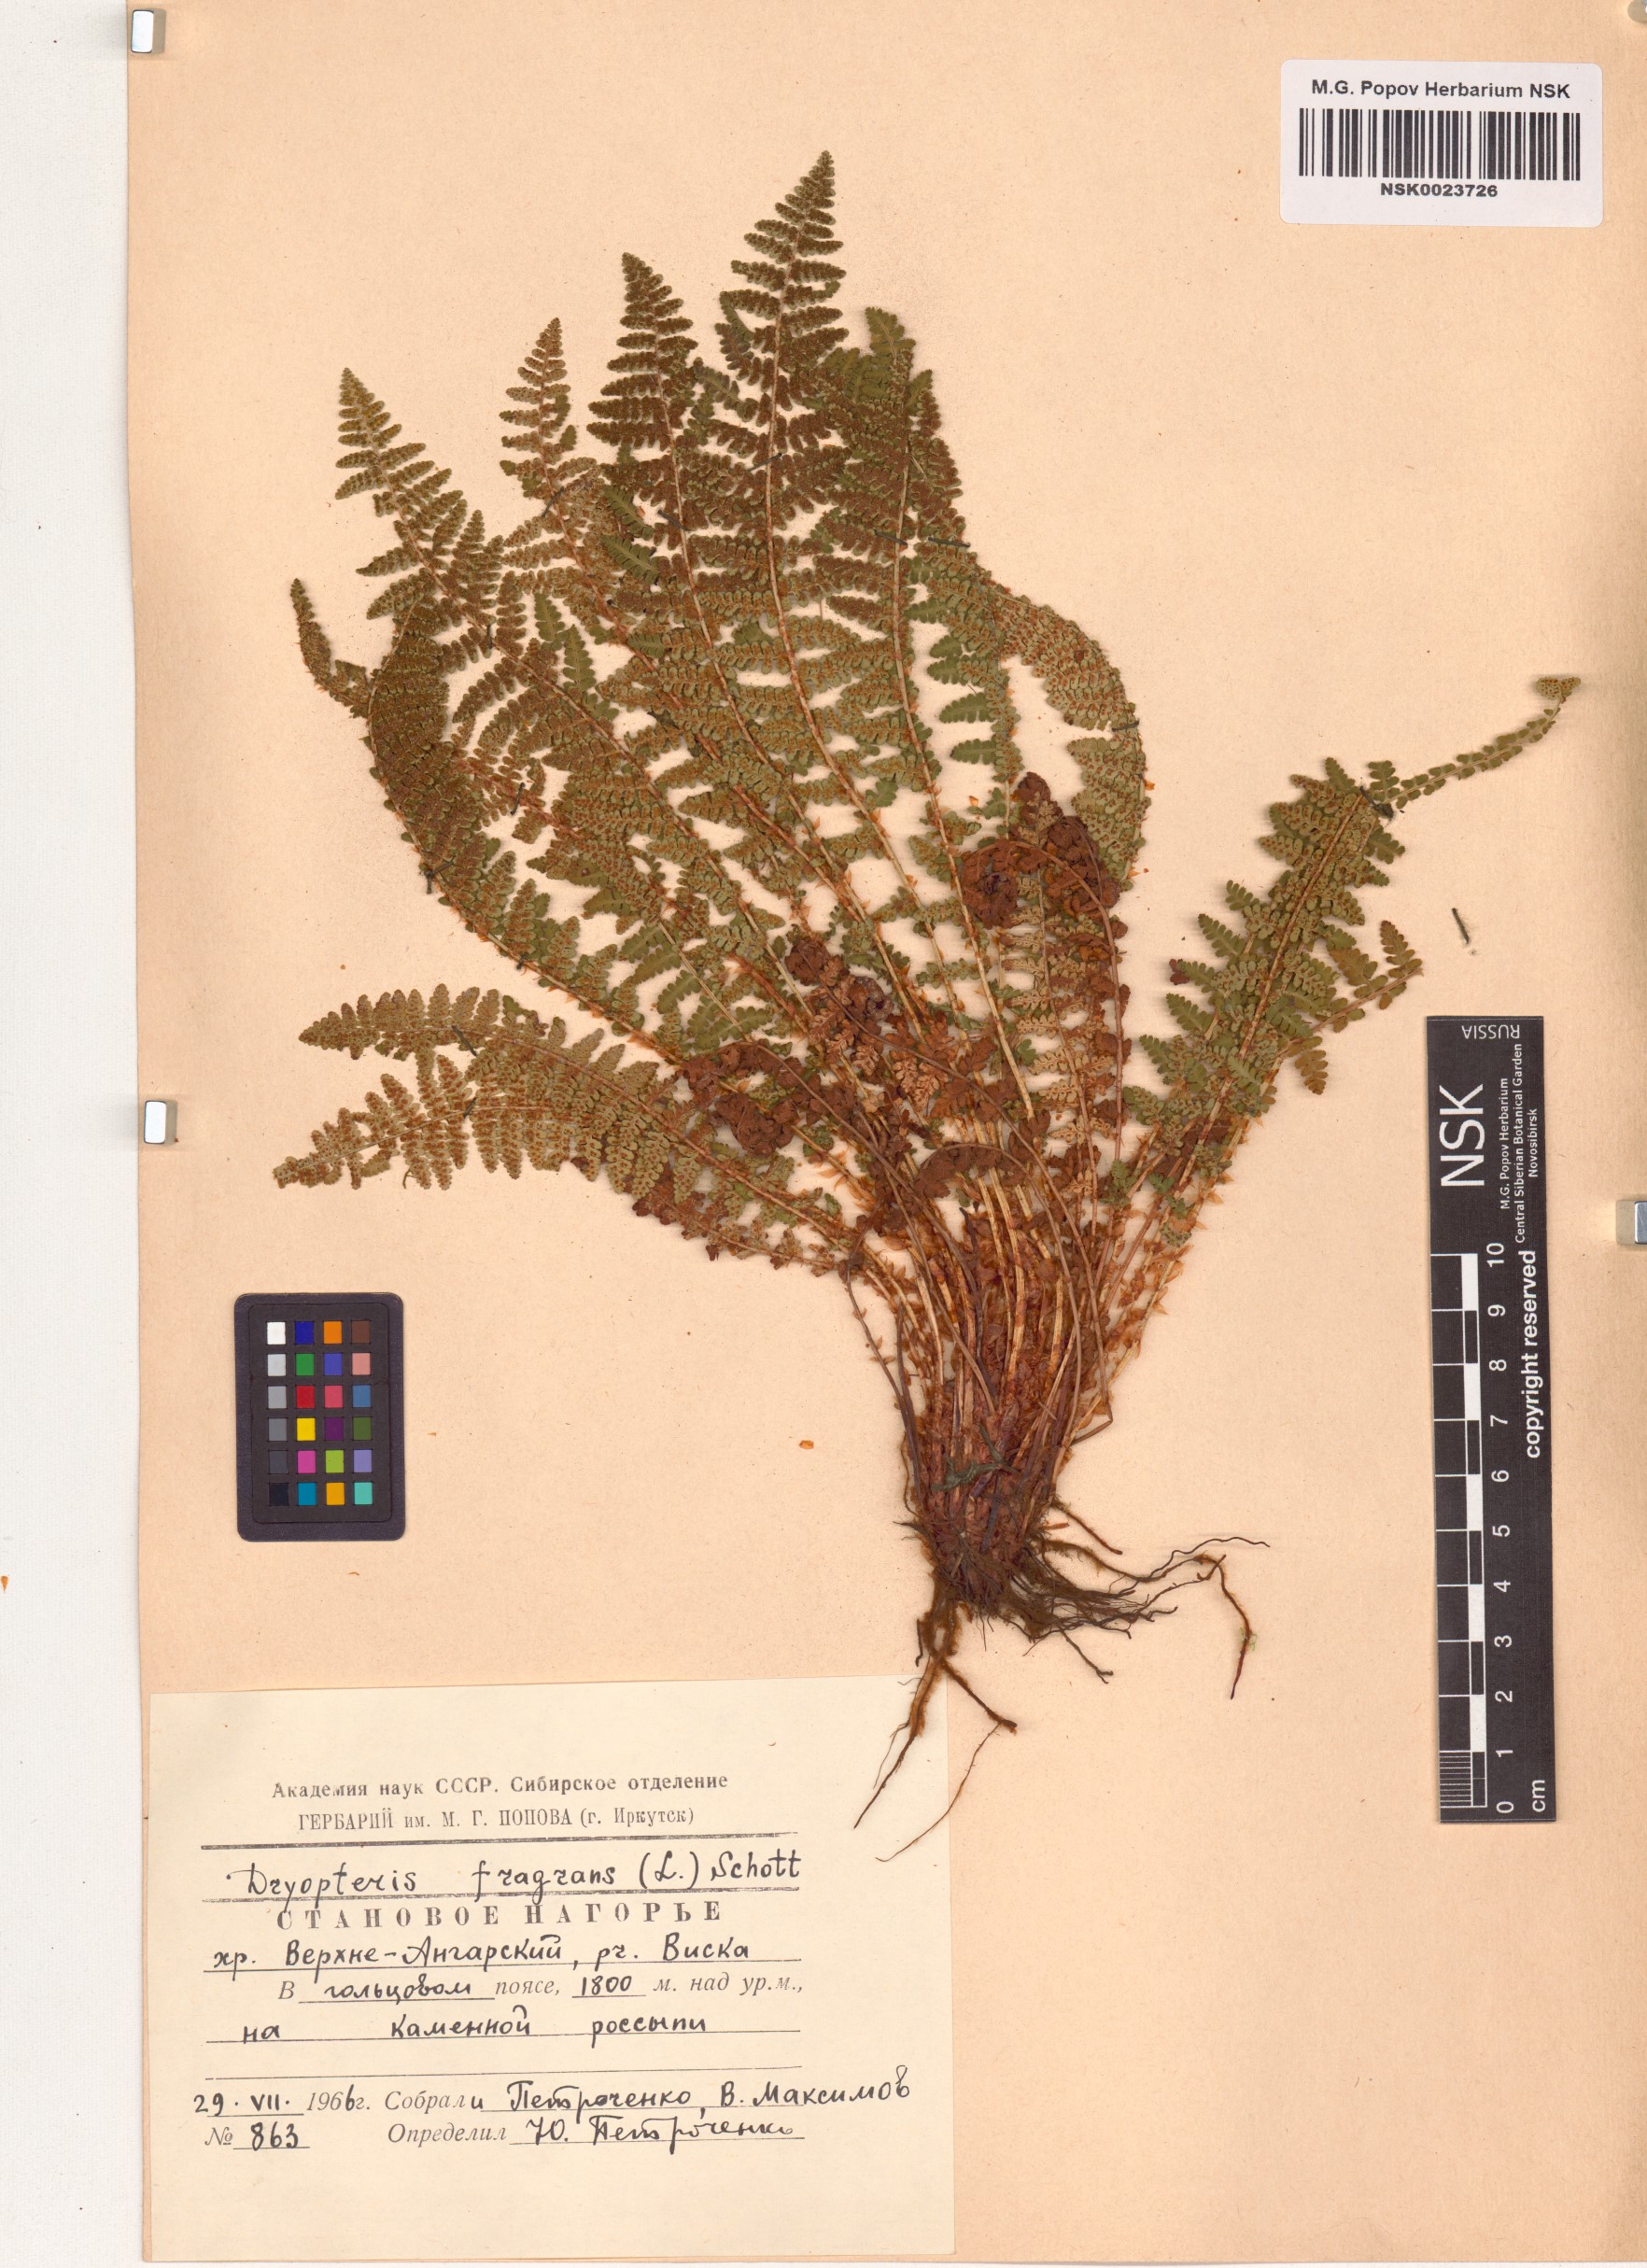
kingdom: Plantae
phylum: Tracheophyta
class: Polypodiopsida
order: Polypodiales
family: Dryopteridaceae
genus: Dryopteris
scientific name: Dryopteris fragrans
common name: Fragrant wood fern
